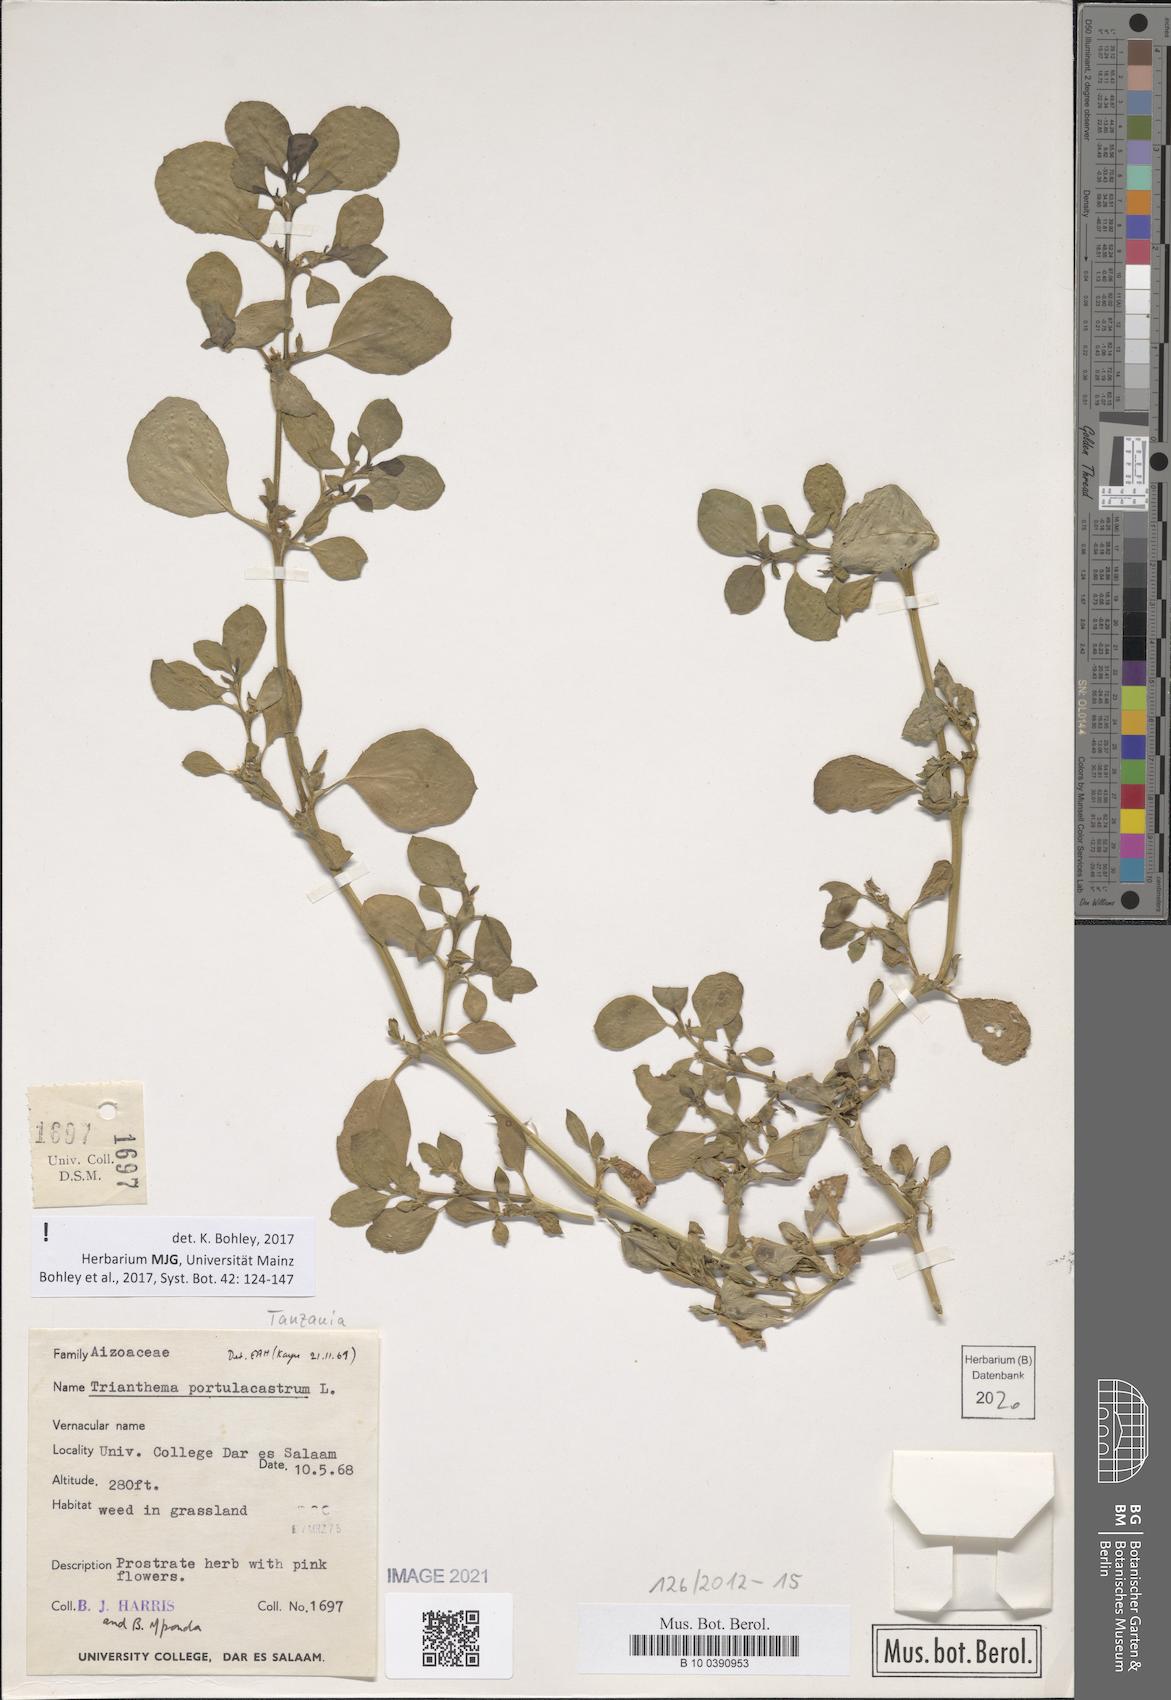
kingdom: Plantae
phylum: Tracheophyta
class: Magnoliopsida
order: Caryophyllales
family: Aizoaceae
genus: Trianthema
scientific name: Trianthema portulacastrum
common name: Desert horsepurslane
